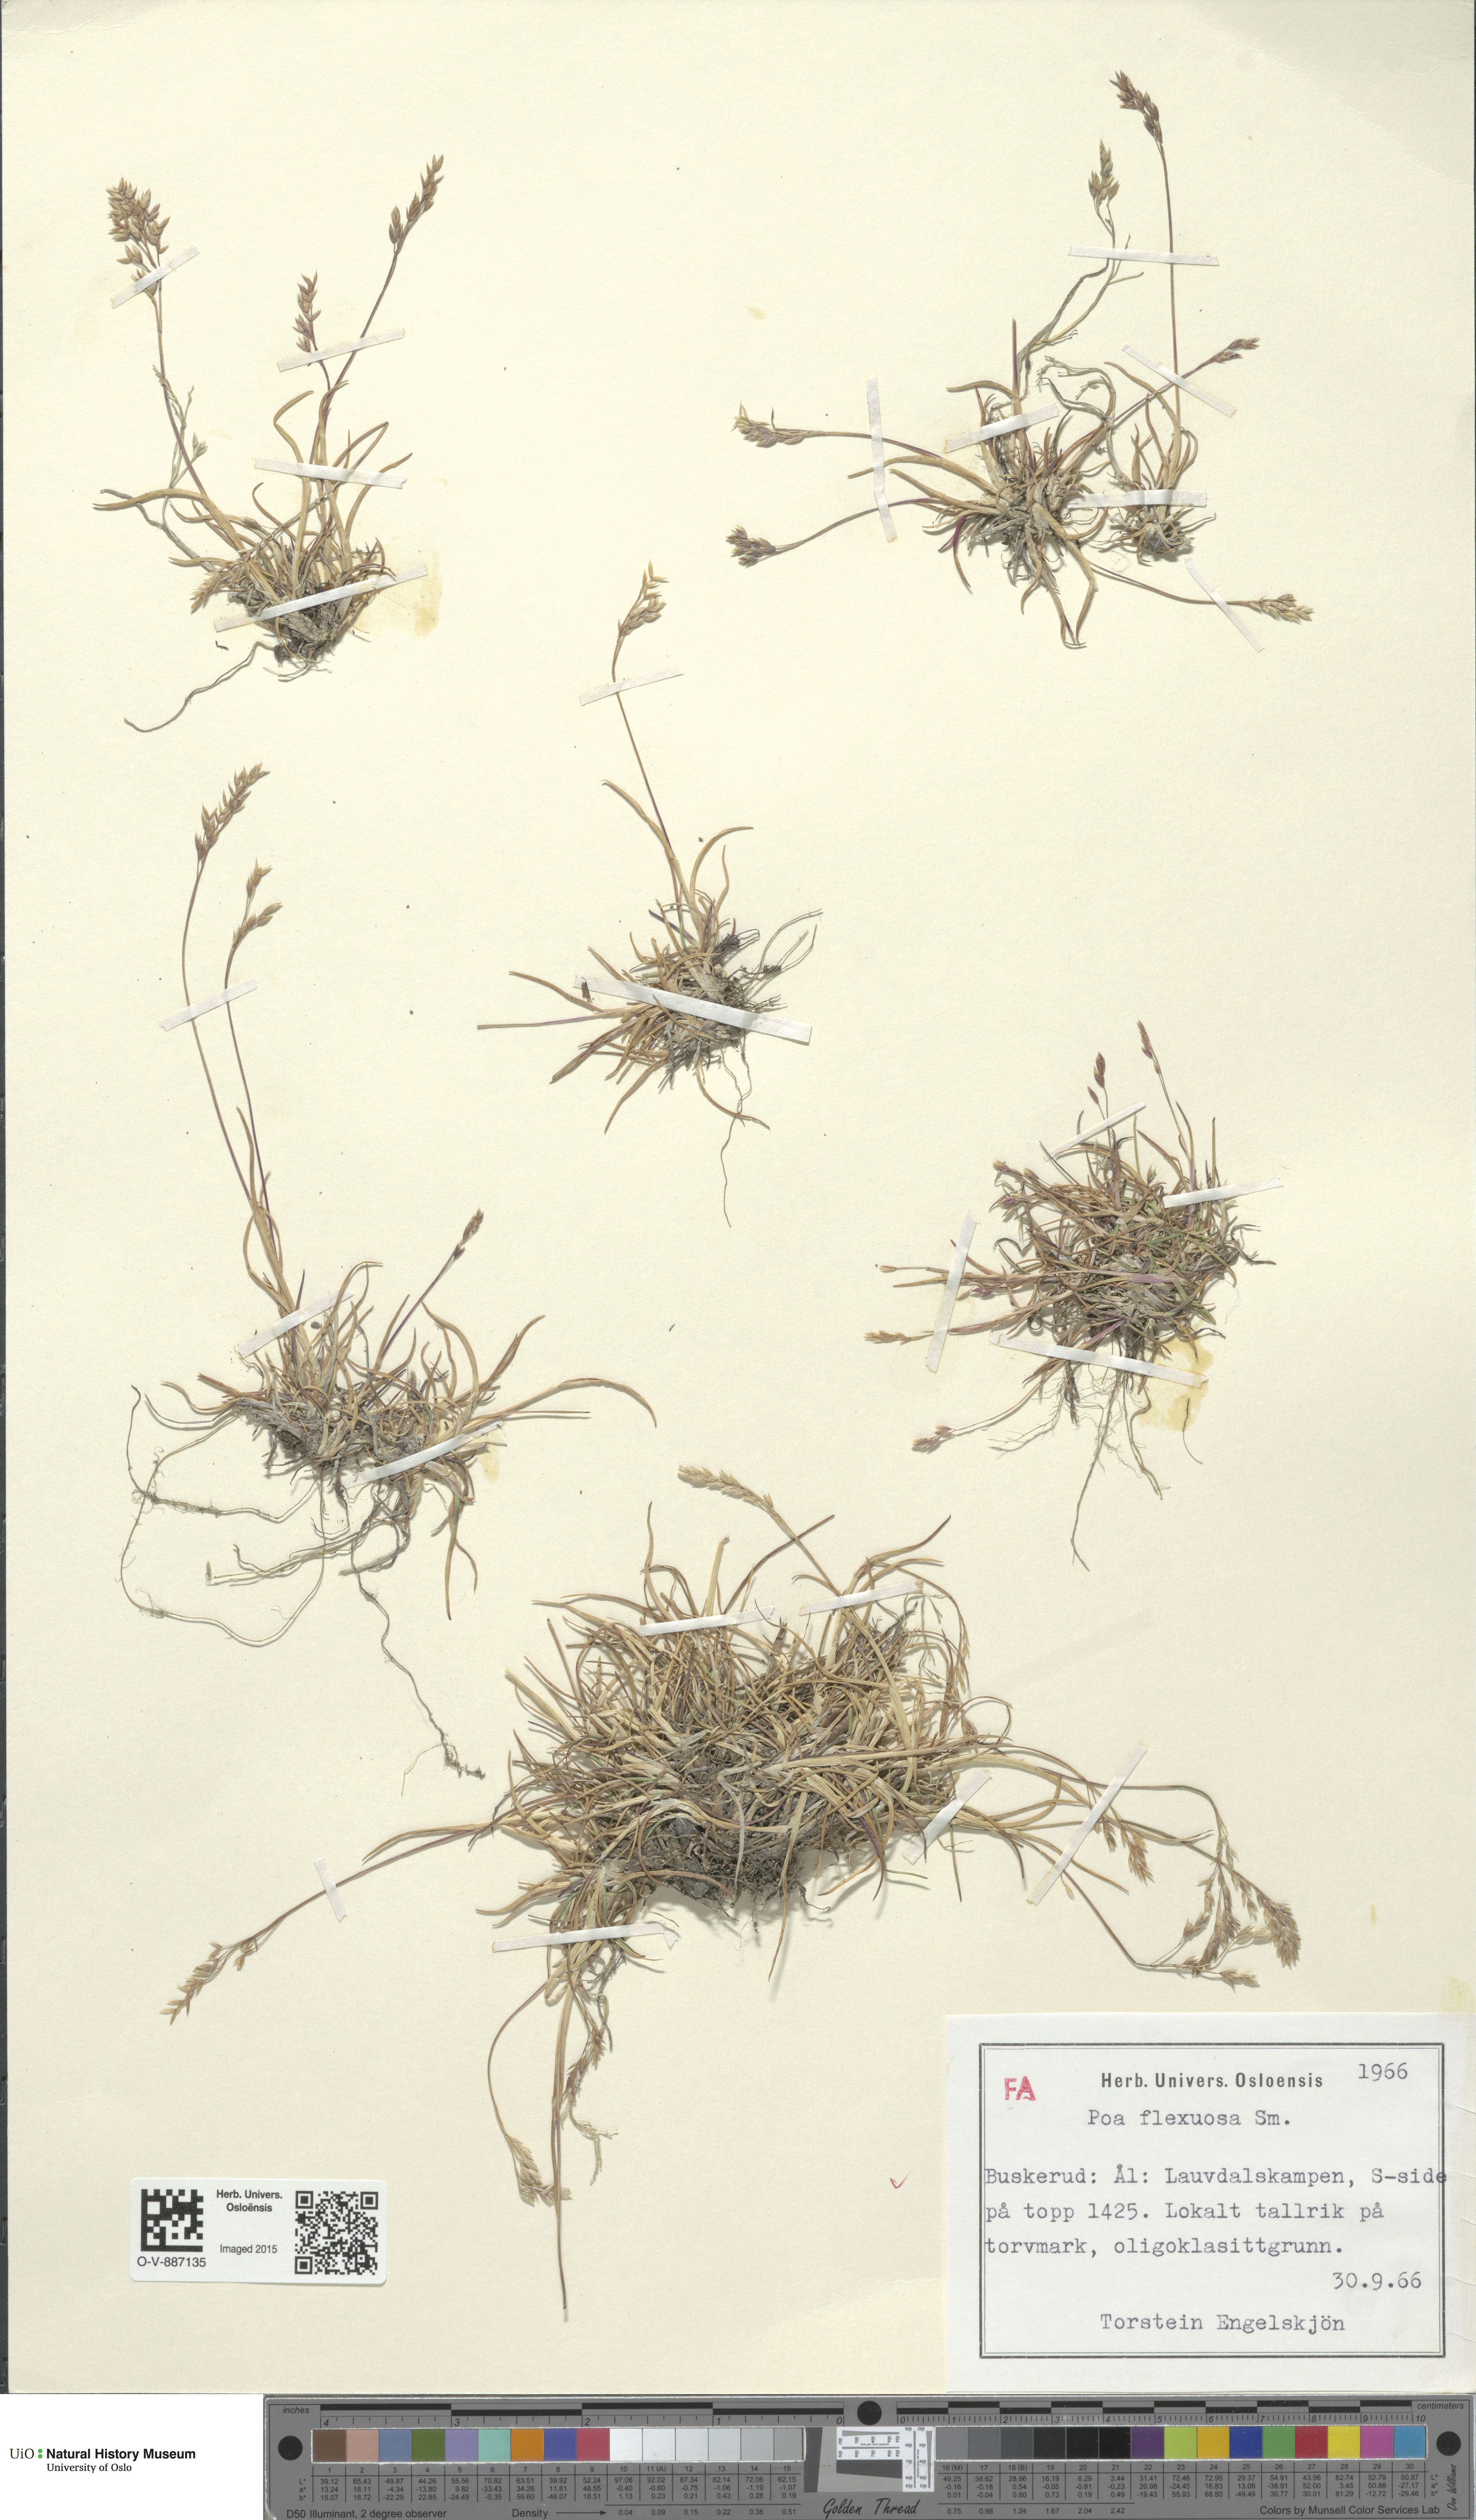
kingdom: Plantae
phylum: Tracheophyta
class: Liliopsida
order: Poales
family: Poaceae
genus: Poa
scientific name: Poa flexuosa
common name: Wavy meadow-grass
